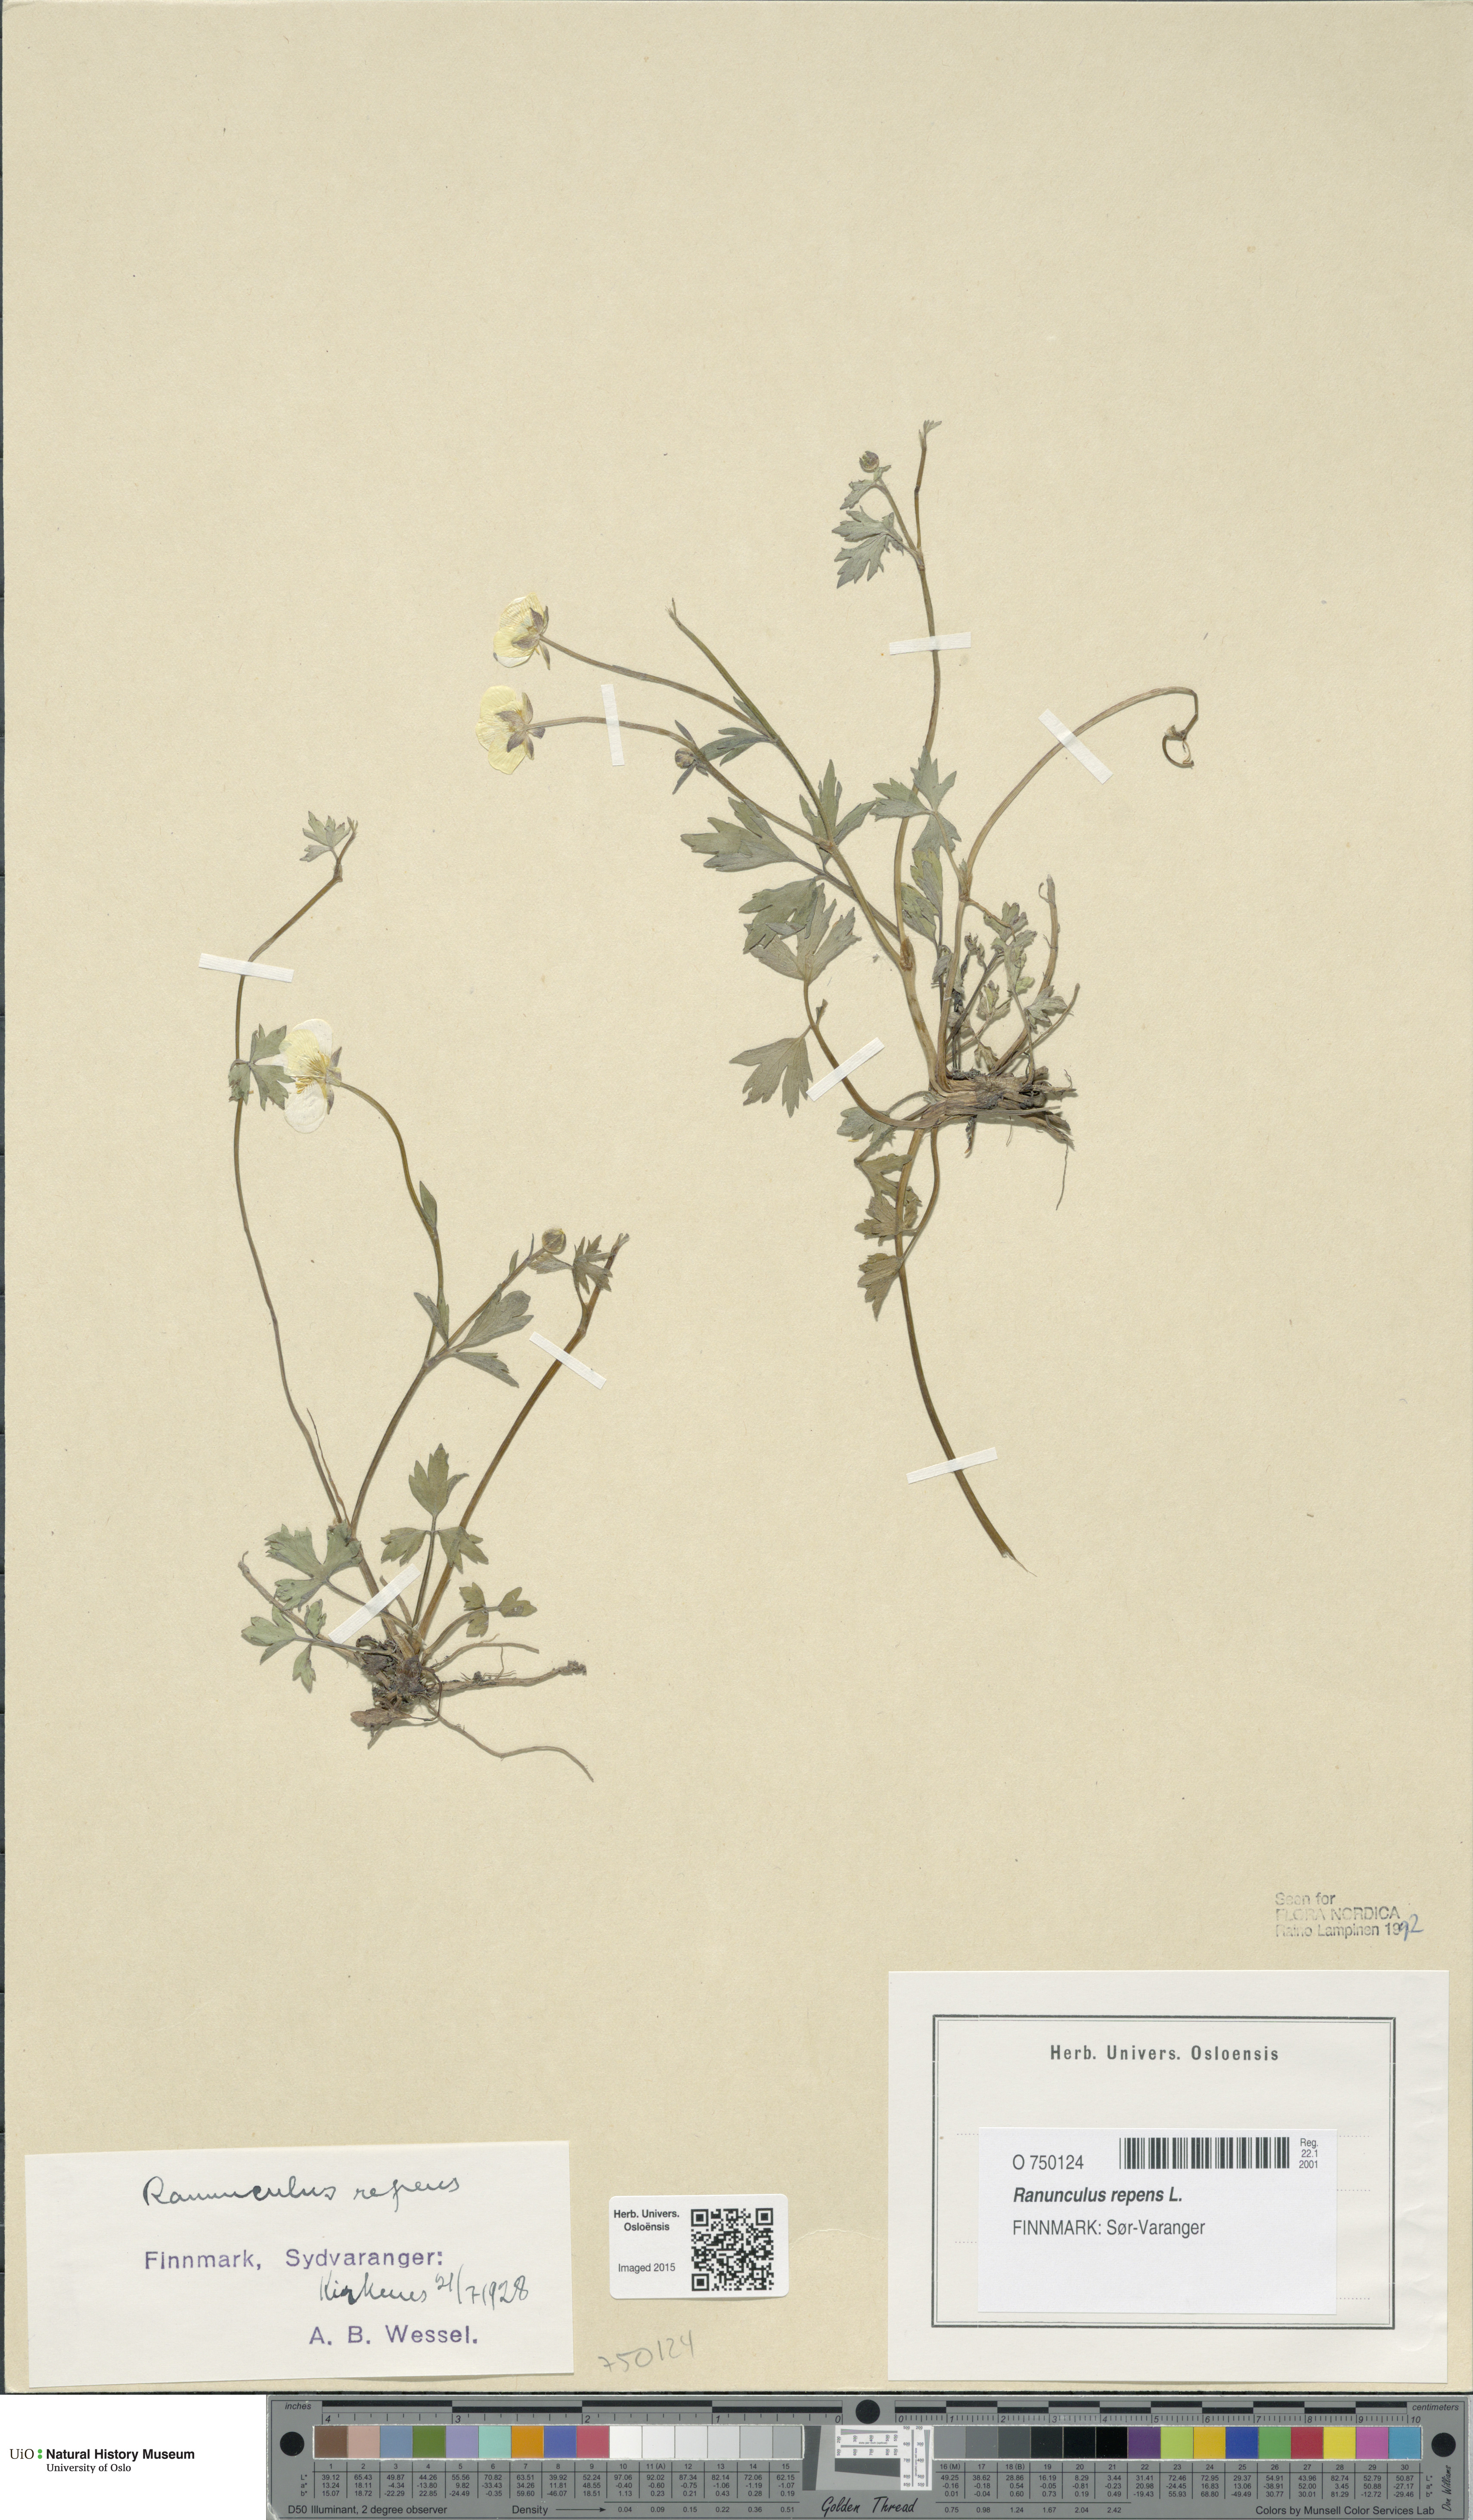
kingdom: Plantae
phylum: Tracheophyta
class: Magnoliopsida
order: Ranunculales
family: Ranunculaceae
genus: Ranunculus
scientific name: Ranunculus repens
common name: Creeping buttercup
